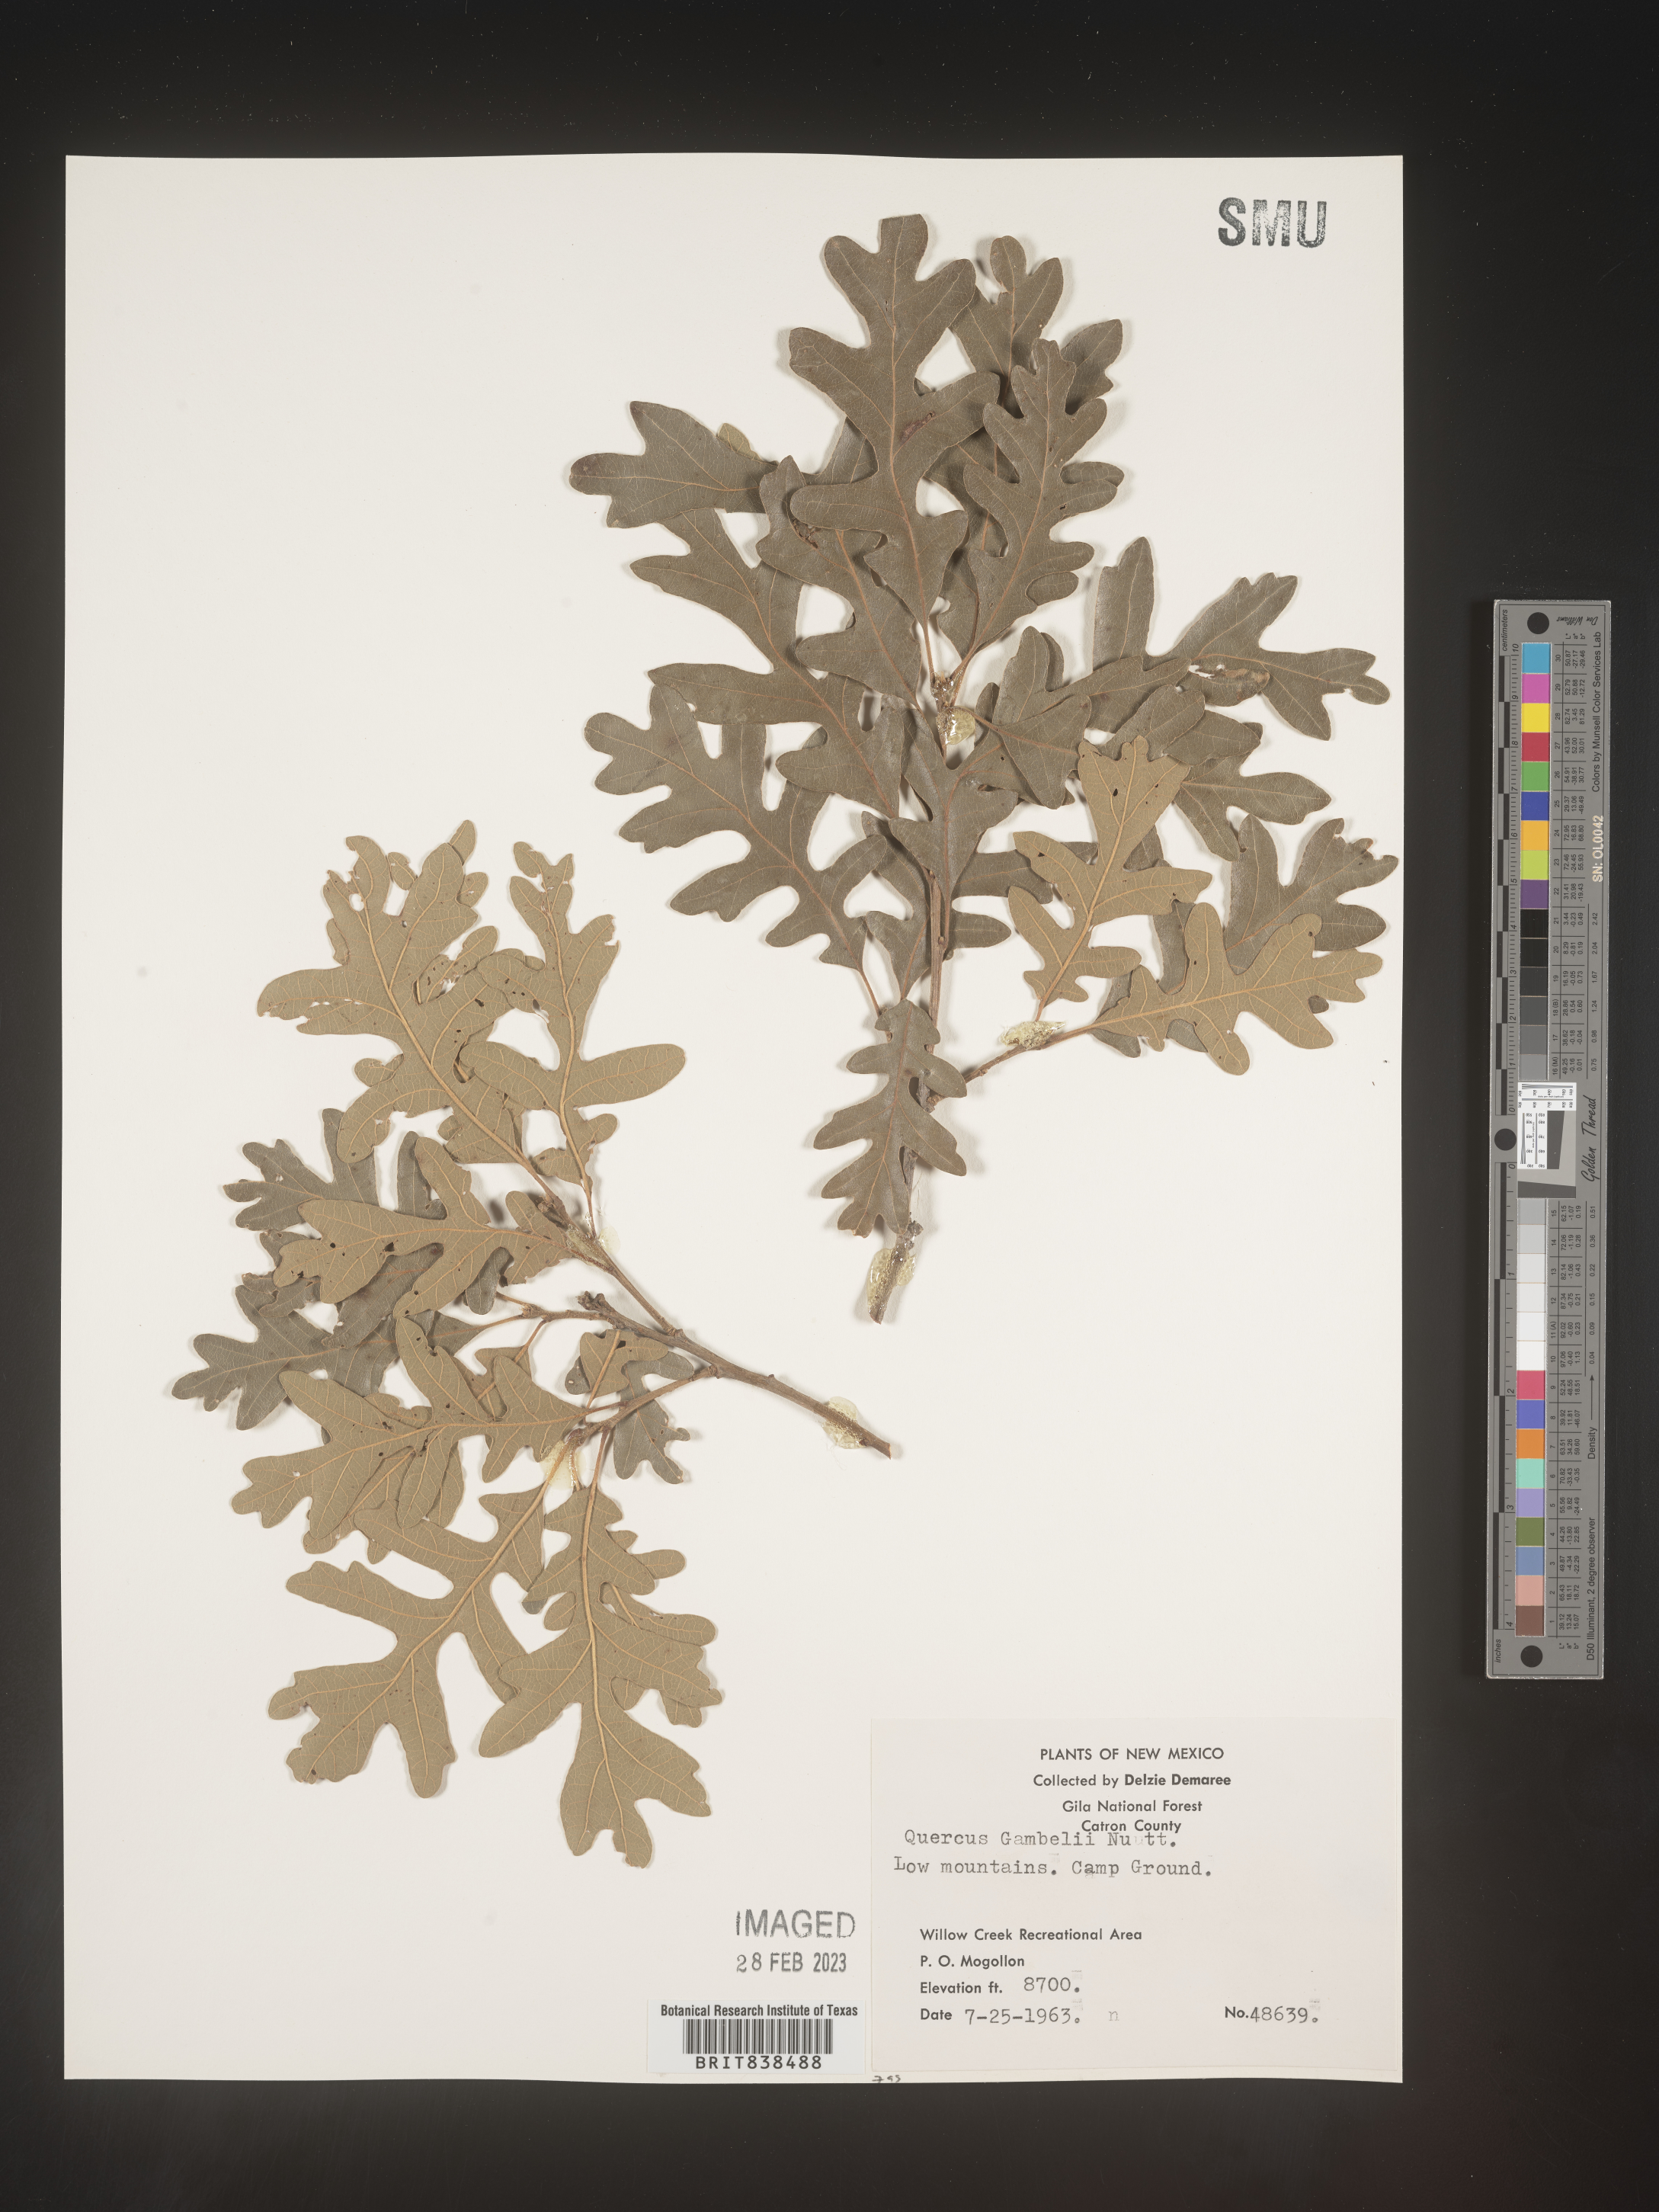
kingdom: Plantae
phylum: Tracheophyta
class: Magnoliopsida
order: Fagales
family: Fagaceae
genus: Quercus
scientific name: Quercus gambelii
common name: Gambel oak
